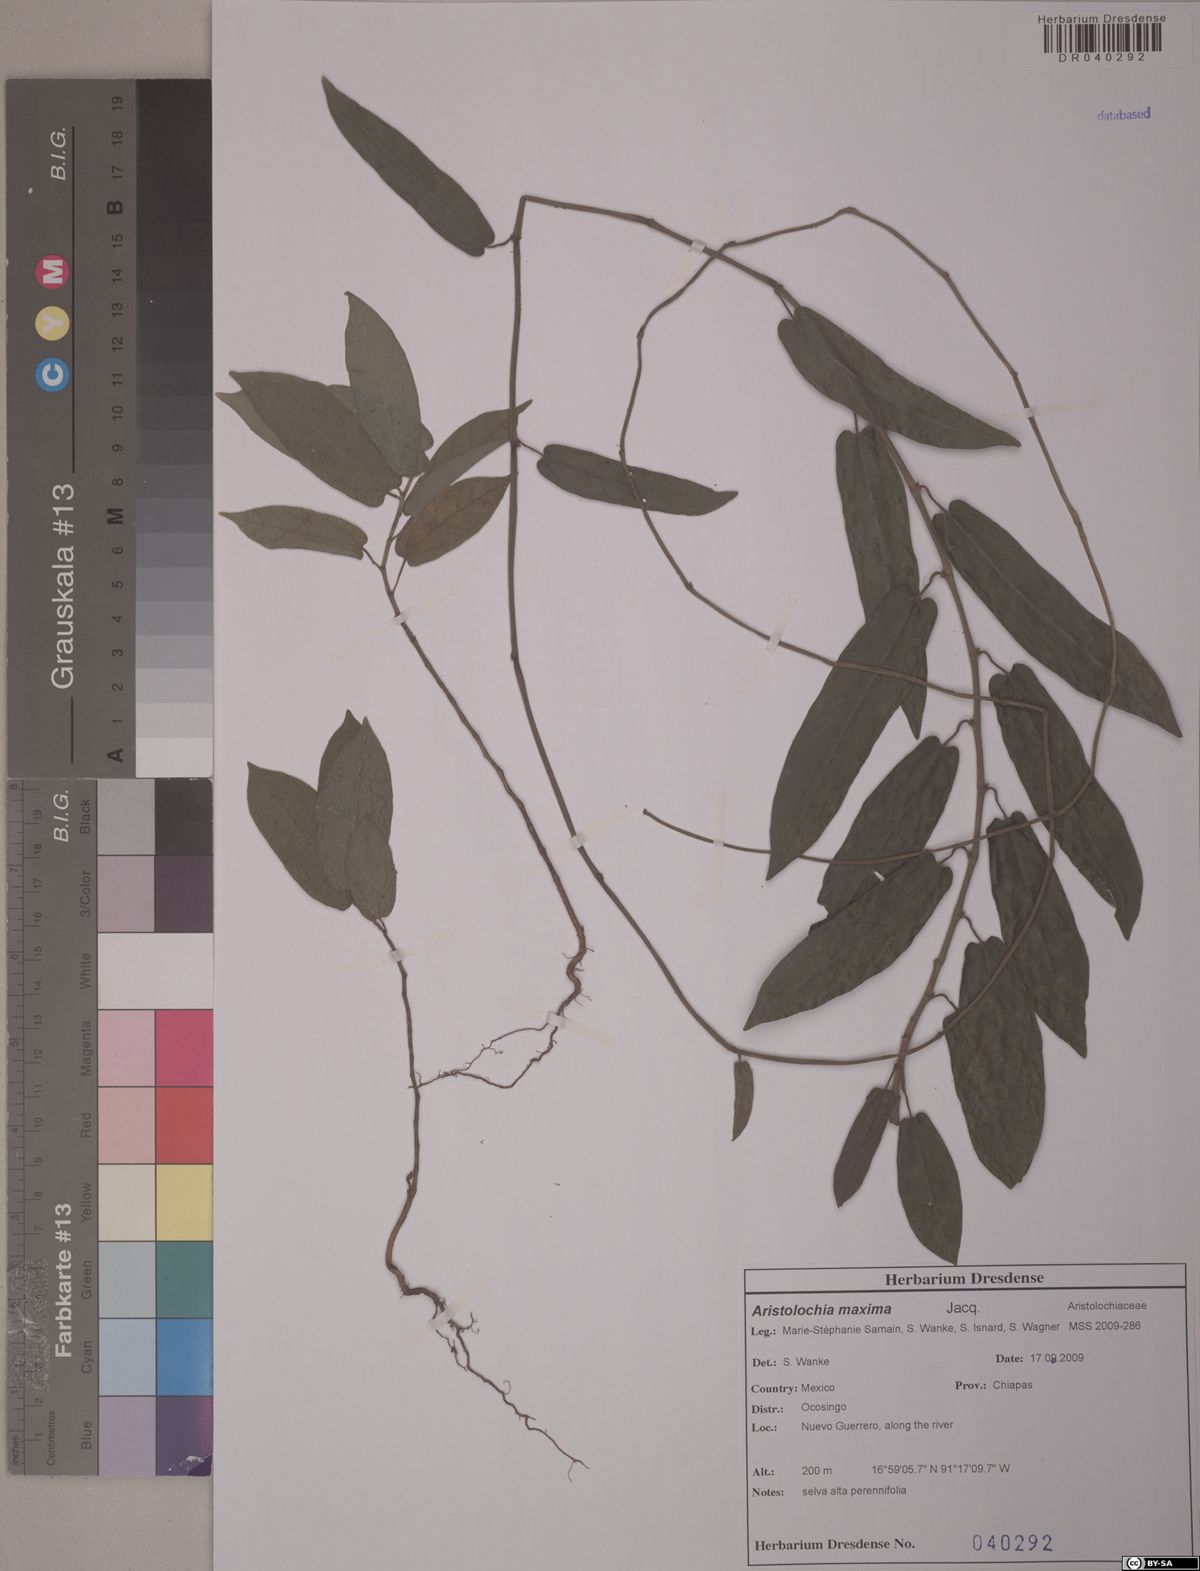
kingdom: Plantae
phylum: Tracheophyta
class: Magnoliopsida
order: Piperales
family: Aristolochiaceae
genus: Aristolochia
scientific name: Aristolochia maxima
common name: Florida dutchman's pipe
